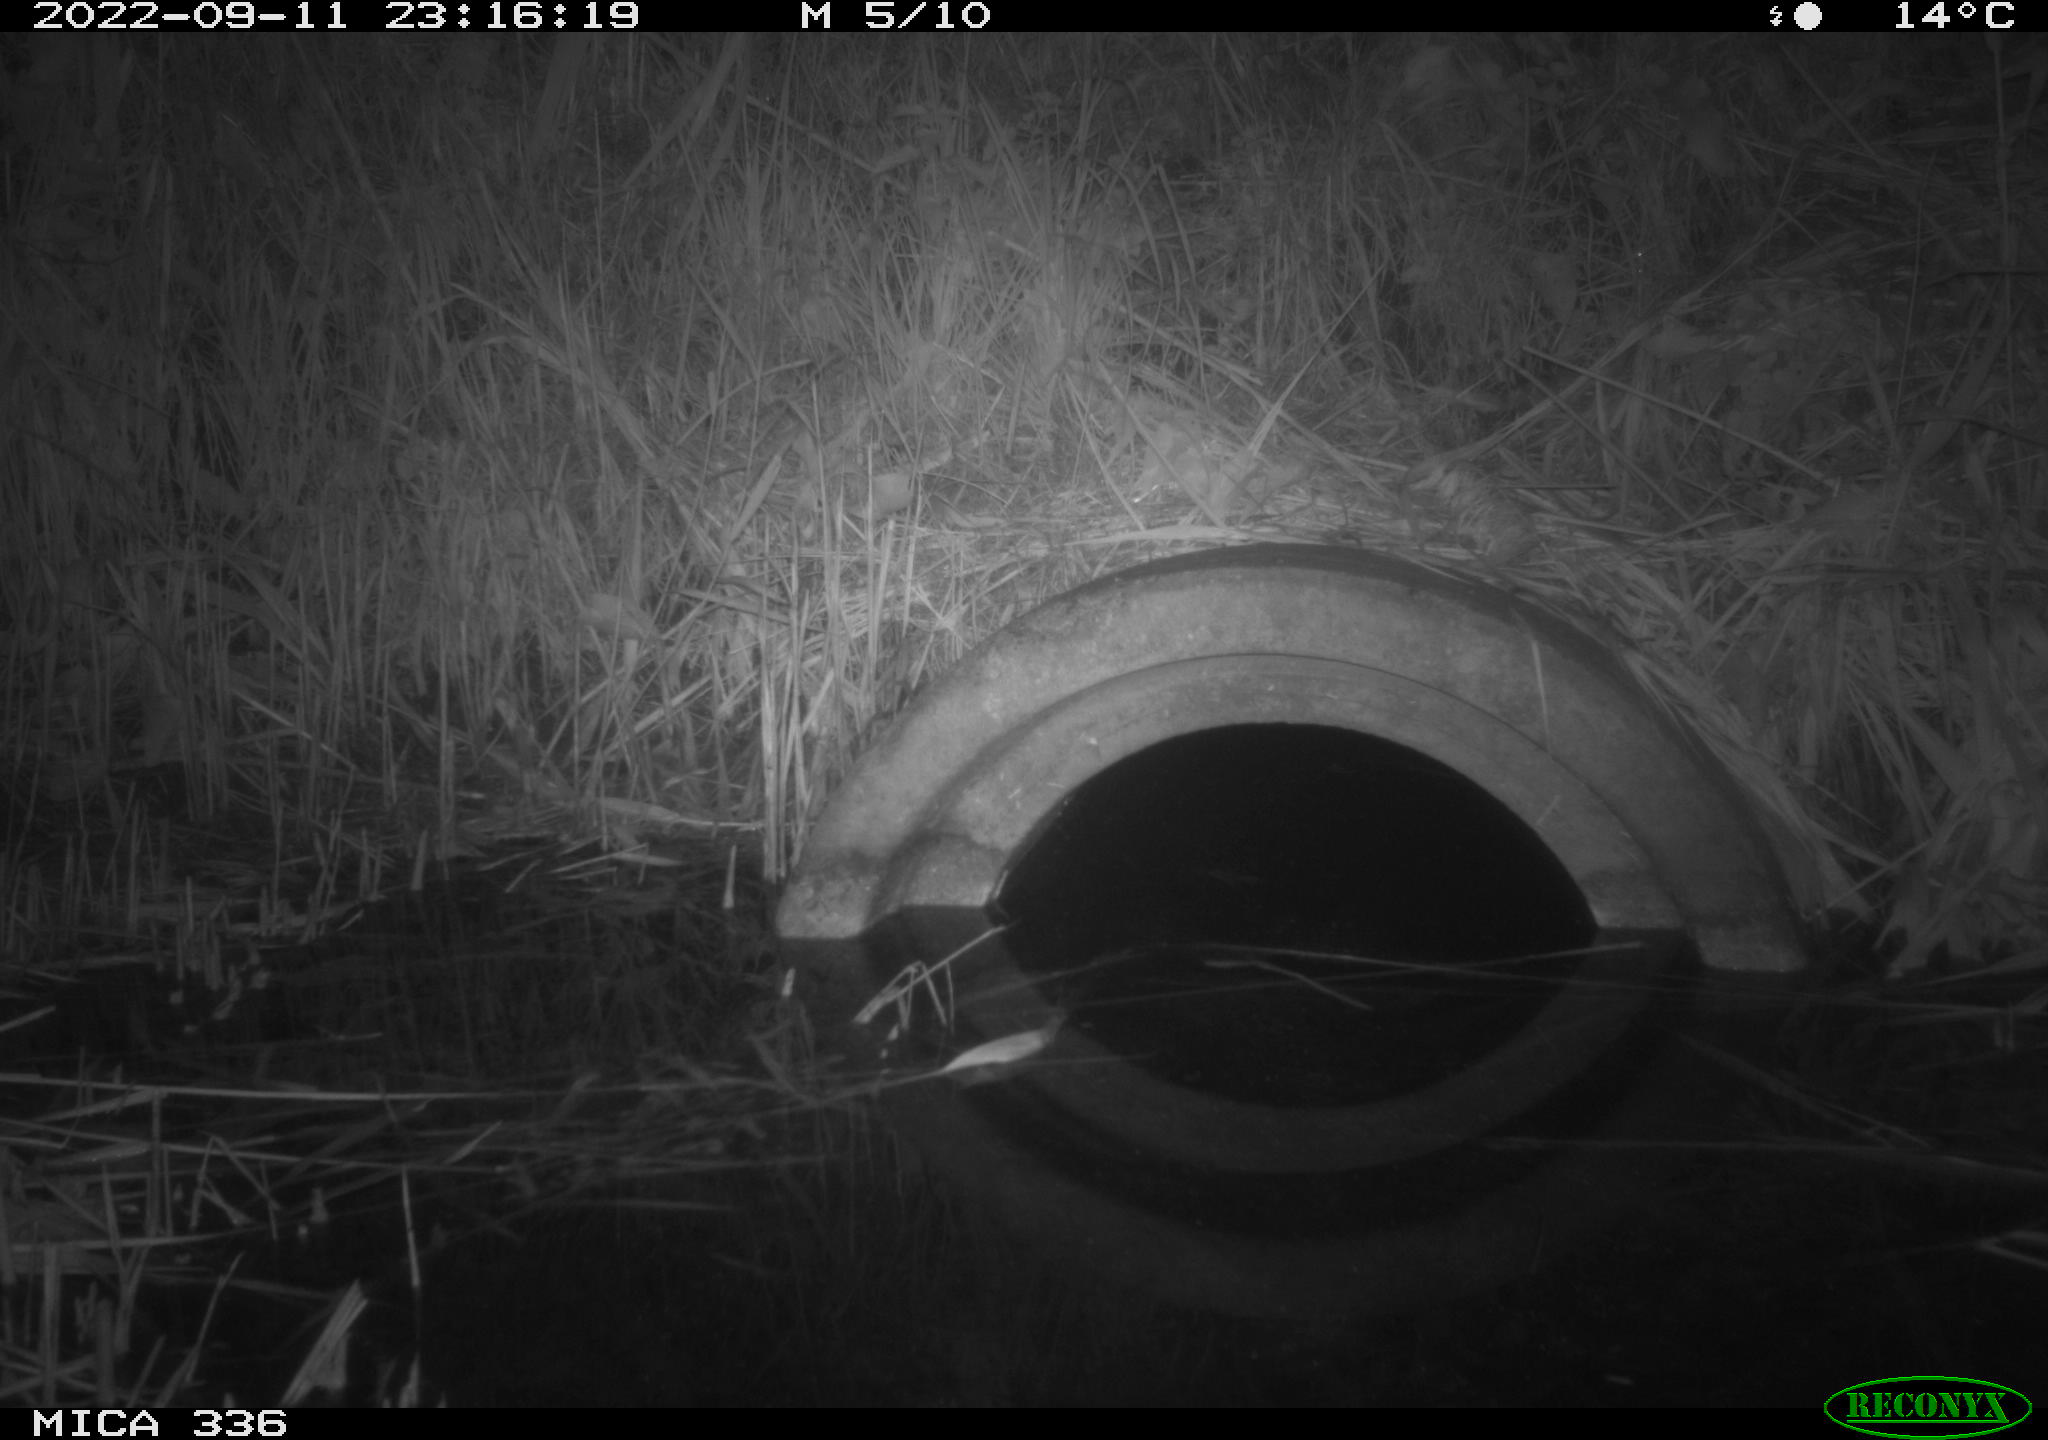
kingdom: Animalia
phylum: Chordata
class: Mammalia
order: Rodentia
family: Muridae
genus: Rattus
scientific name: Rattus norvegicus
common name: Brown rat
